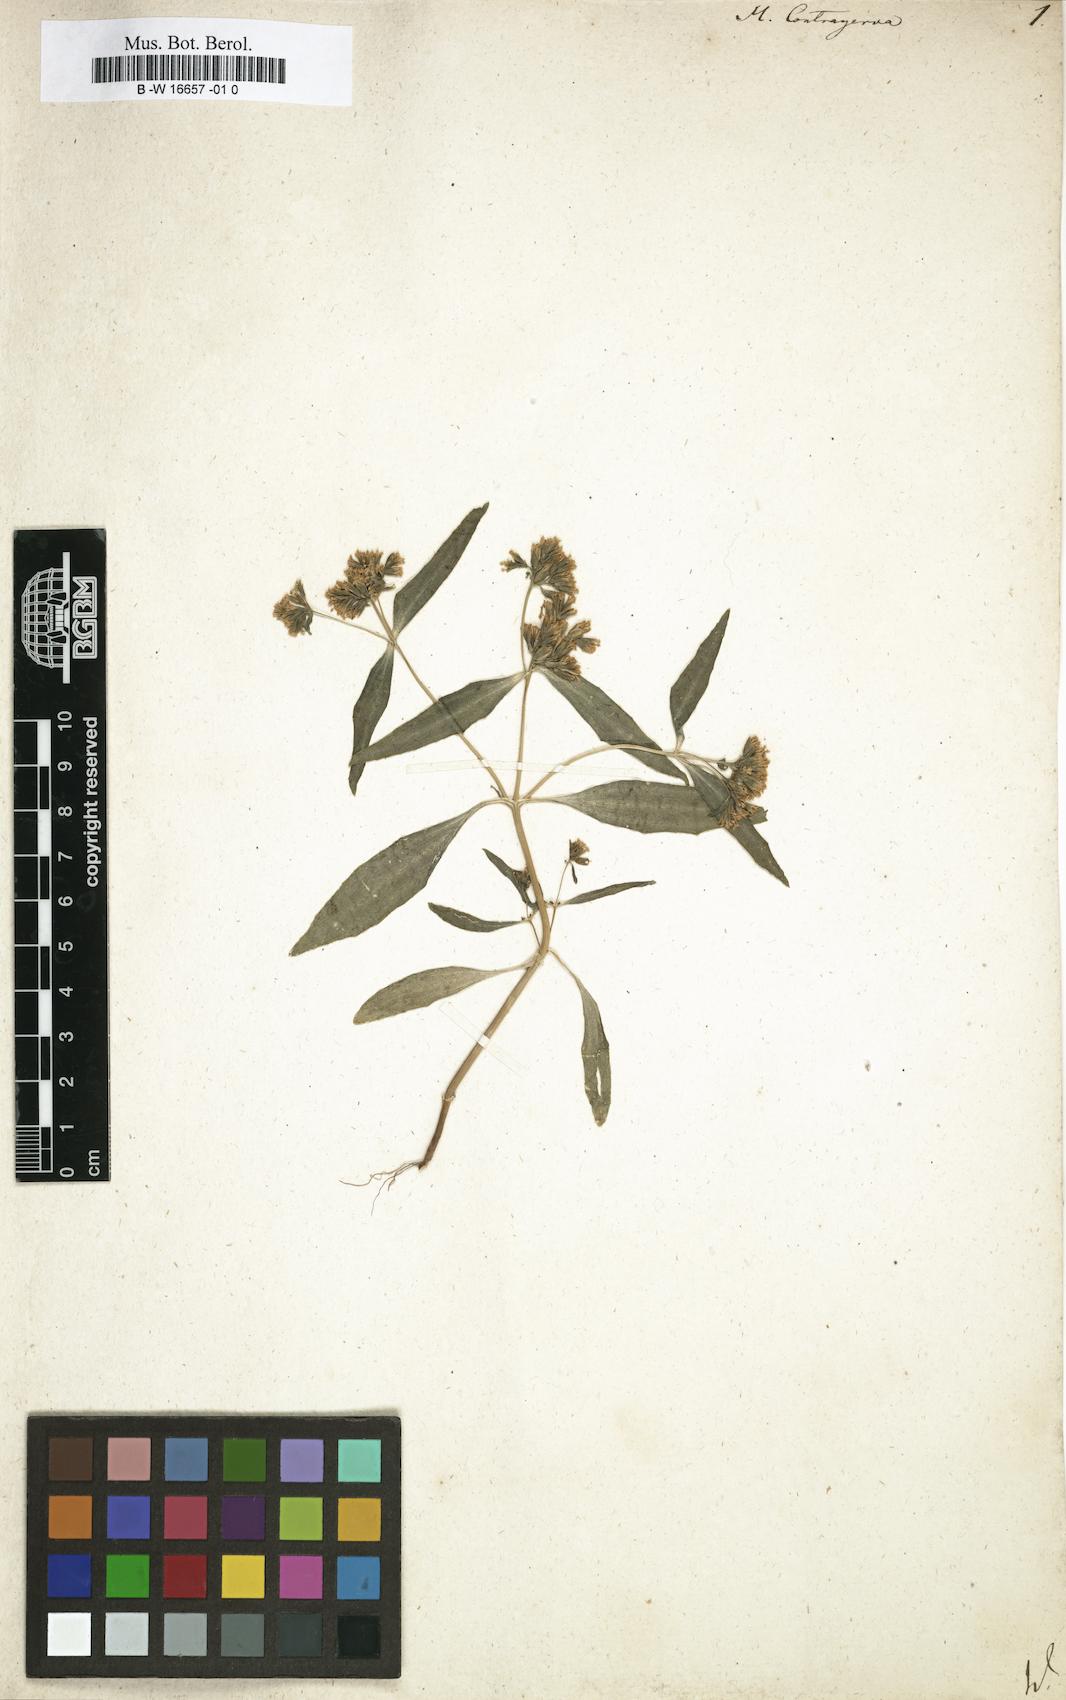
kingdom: Plantae
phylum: Tracheophyta
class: Magnoliopsida
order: Asterales
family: Asteraceae
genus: Flaveria
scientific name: Flaveria bidentis
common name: Coastal plain yellowtops
